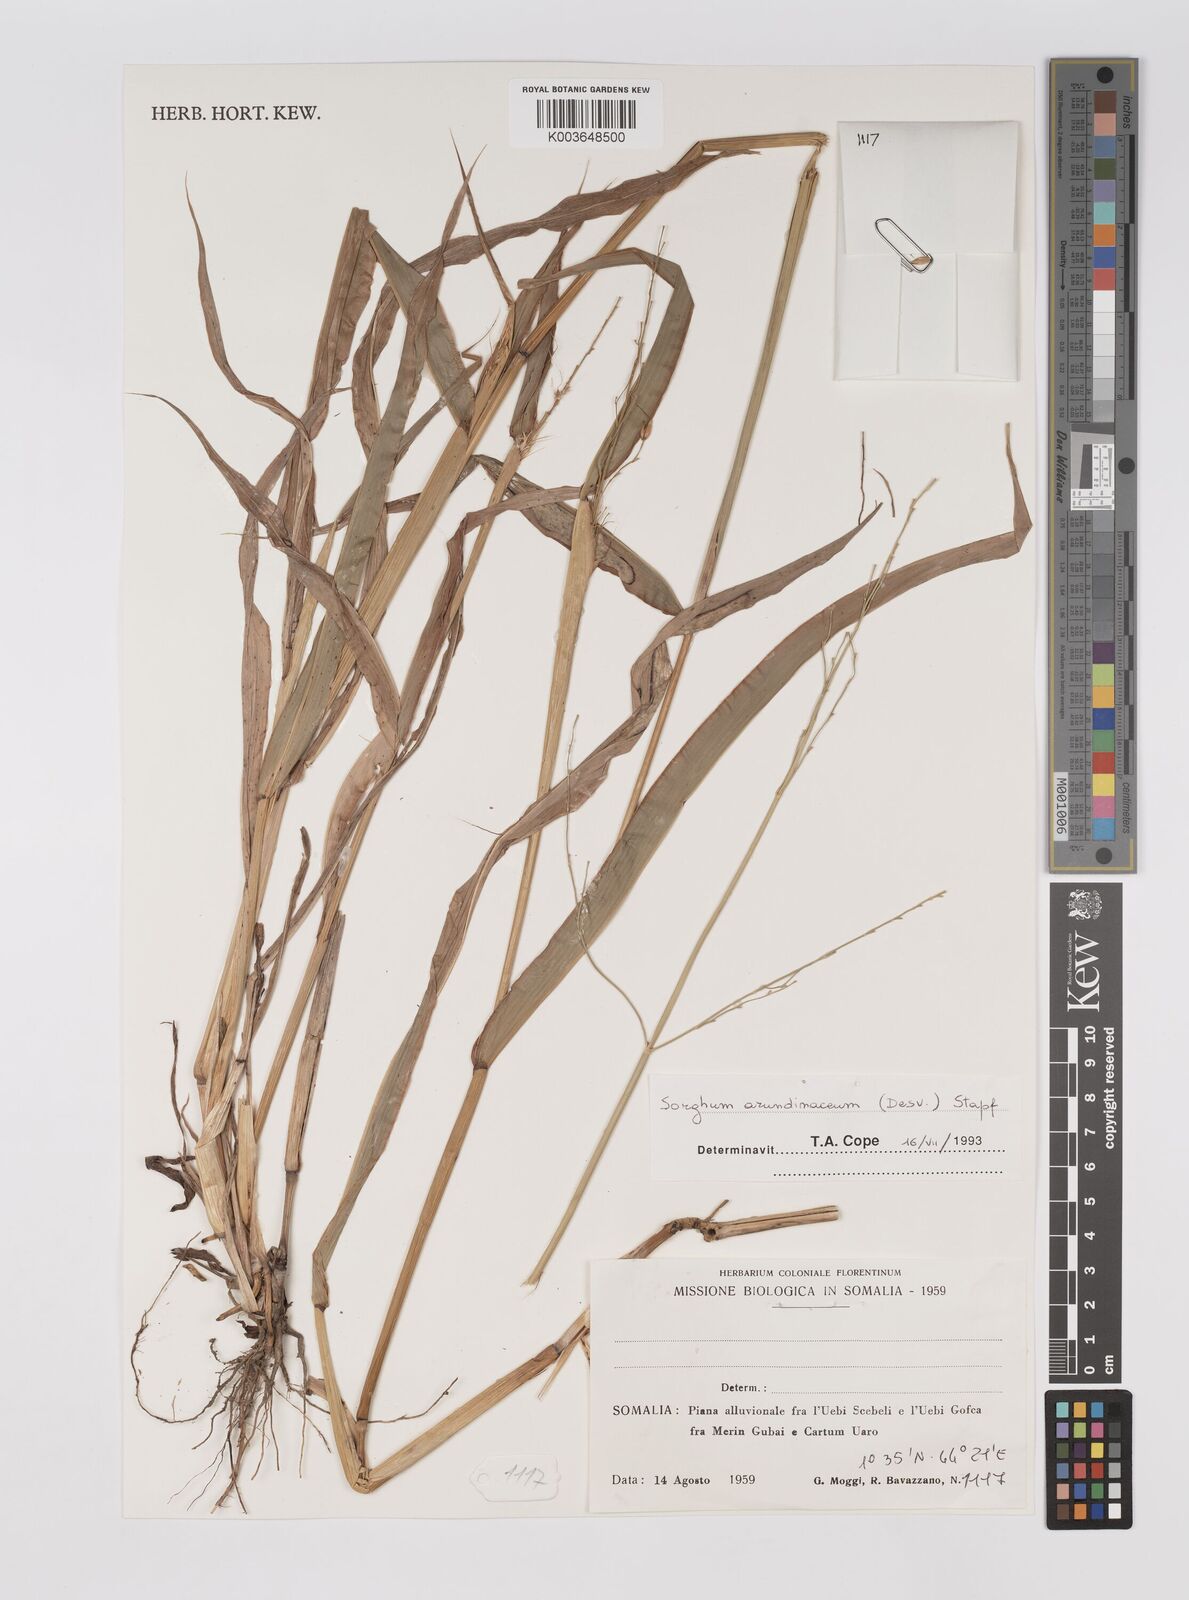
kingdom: Plantae
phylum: Tracheophyta
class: Liliopsida
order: Poales
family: Poaceae
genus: Sorghum
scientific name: Sorghum arundinaceum
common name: Sorghum
